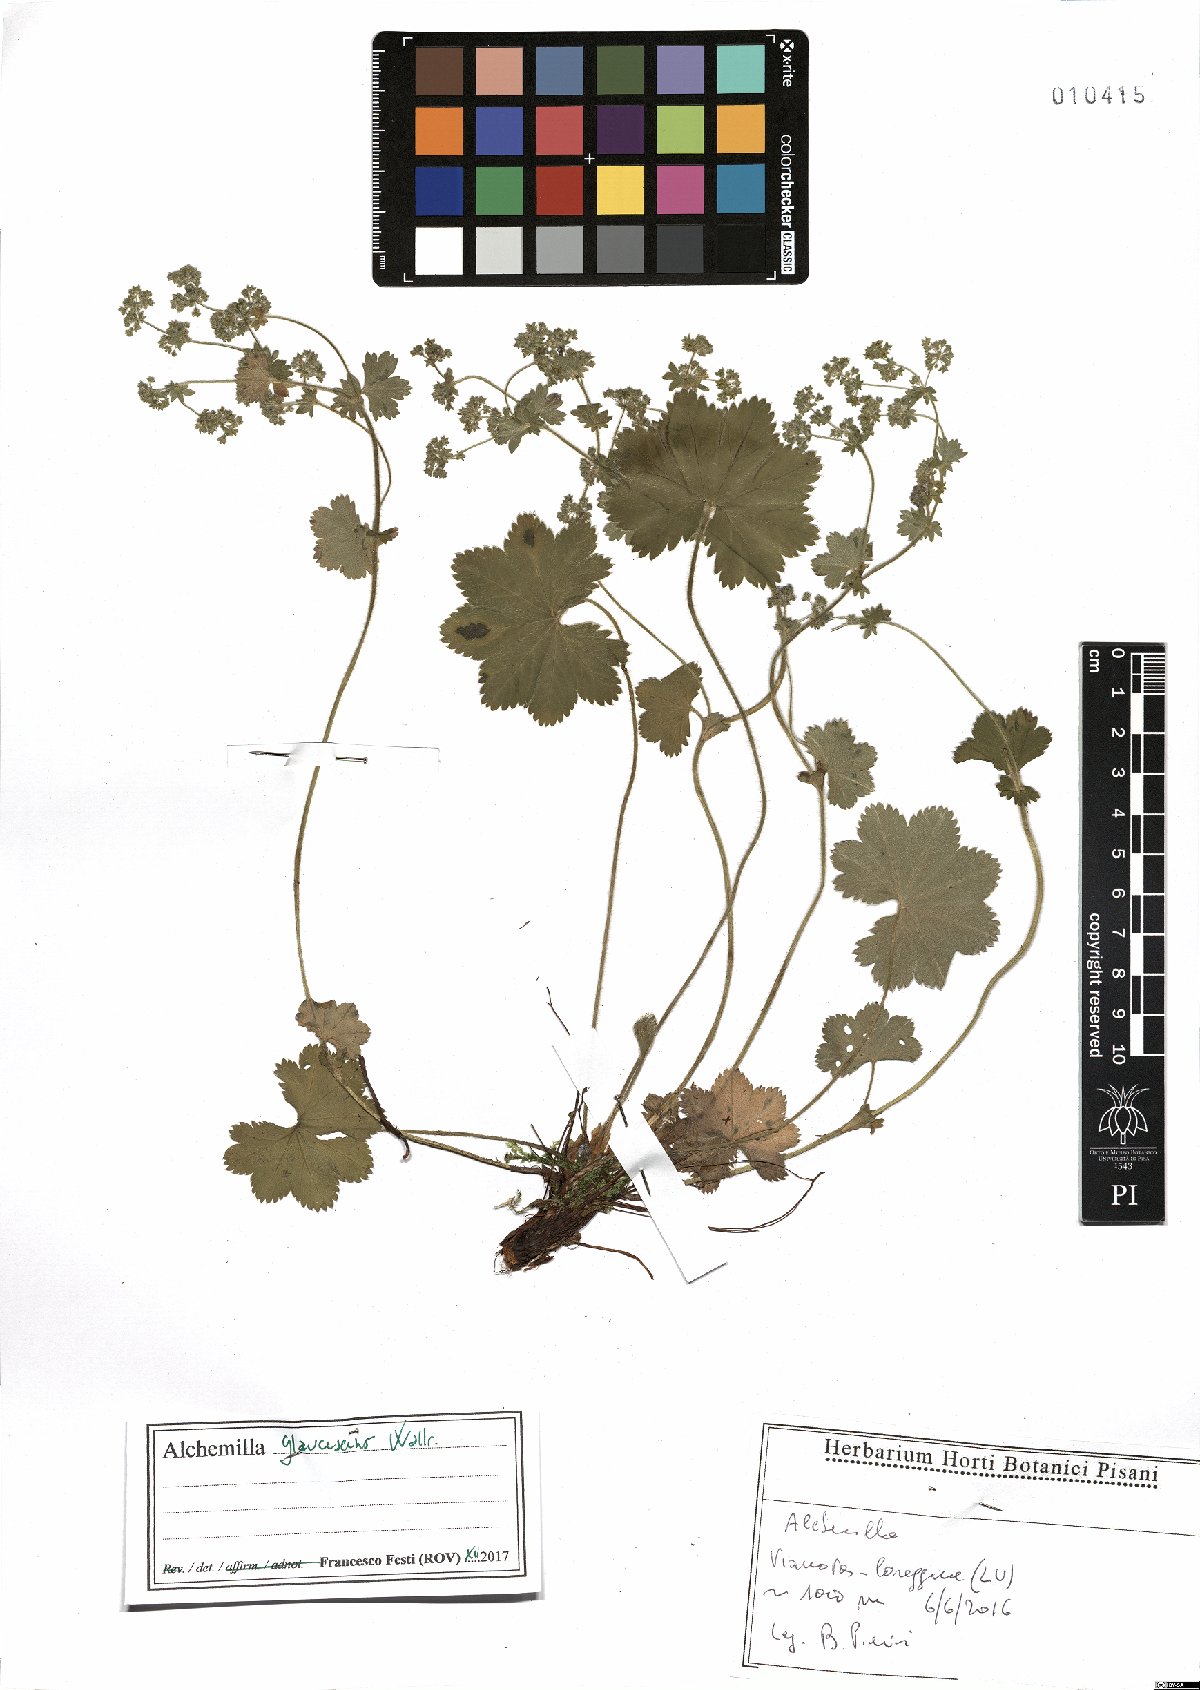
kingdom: Plantae
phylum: Tracheophyta
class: Magnoliopsida
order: Rosales
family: Rosaceae
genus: Alchemilla
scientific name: Alchemilla glaucescens
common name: Silky lady's mantle
